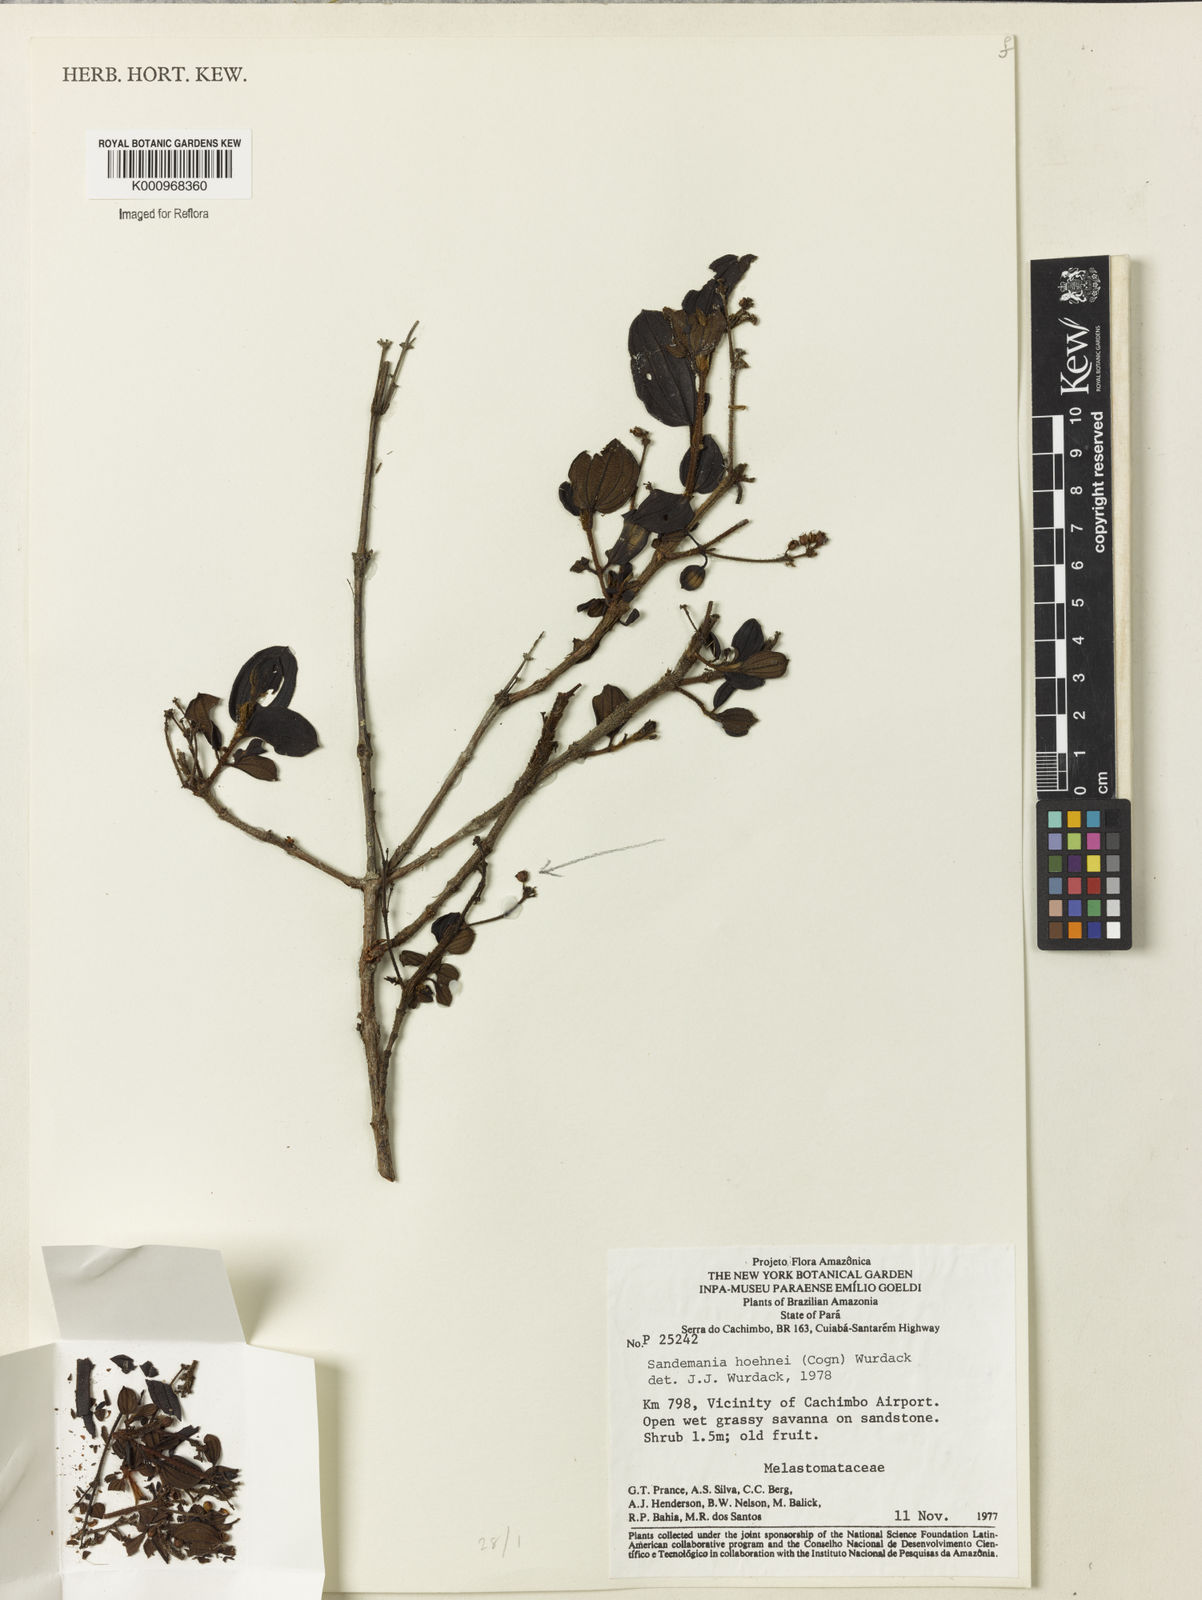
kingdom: Plantae
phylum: Tracheophyta
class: Magnoliopsida
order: Myrtales
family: Melastomataceae
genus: Sandemania
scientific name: Sandemania hoehnei
